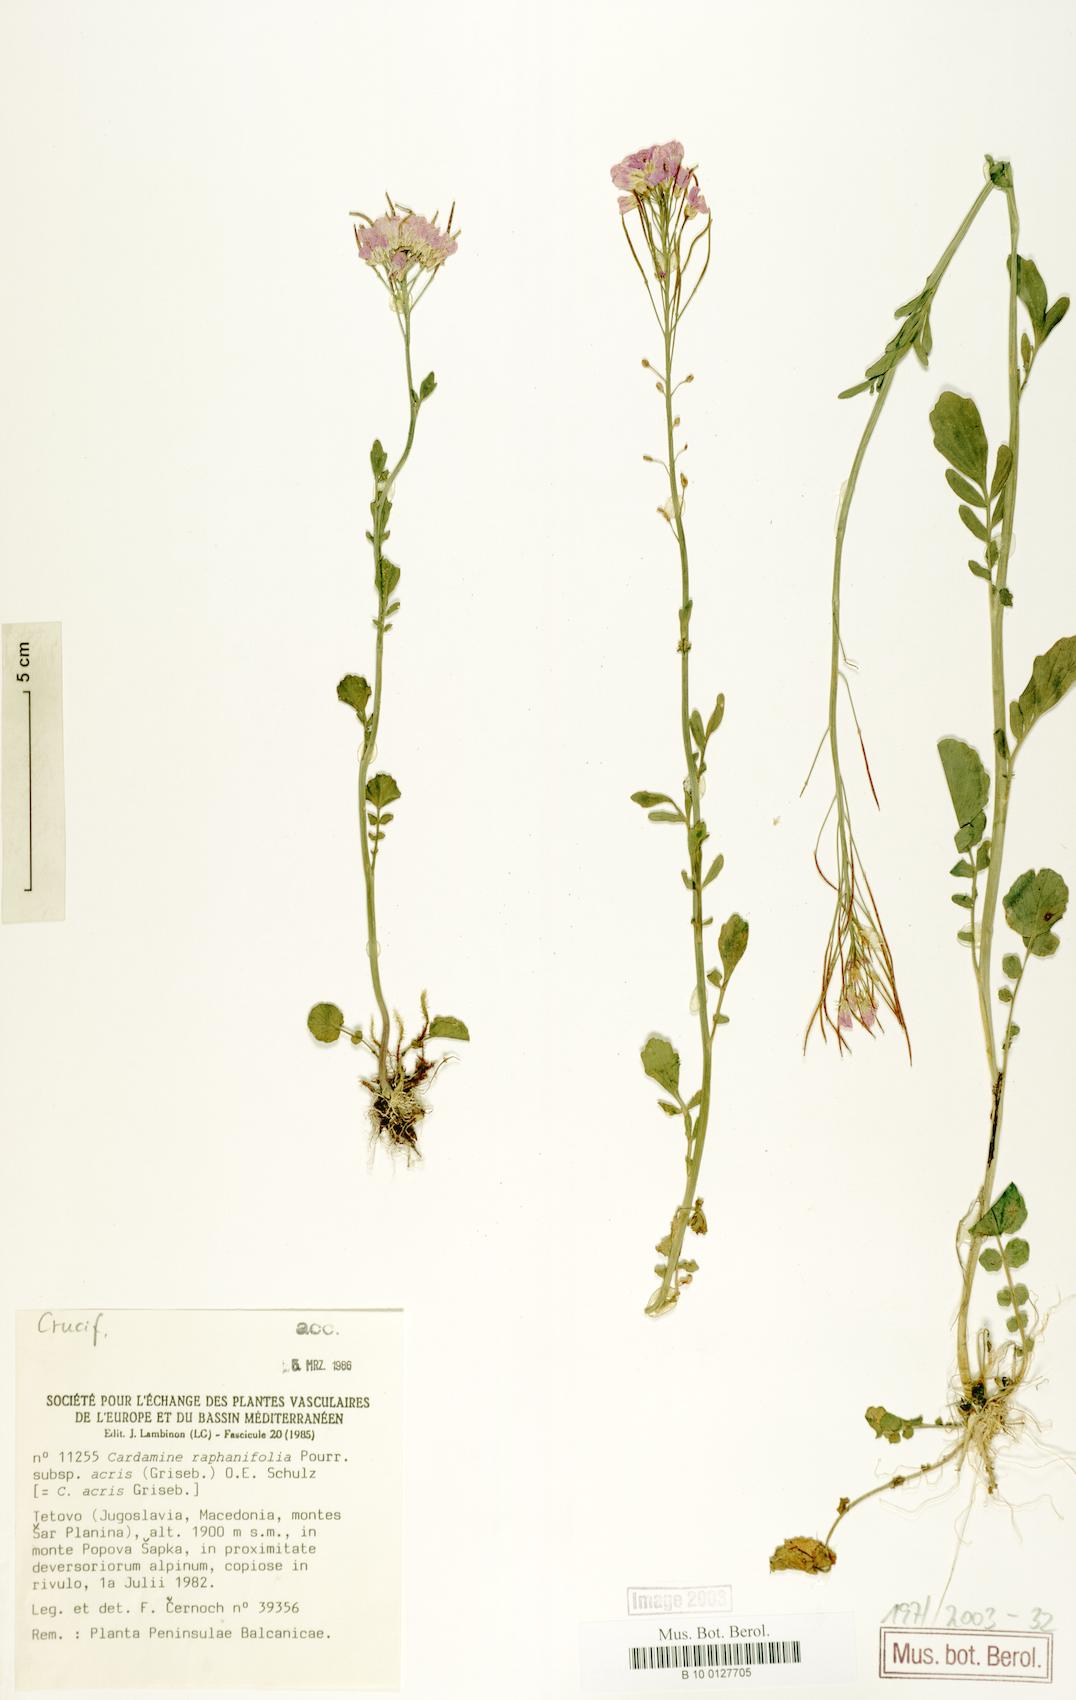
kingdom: Plantae
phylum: Tracheophyta
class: Magnoliopsida
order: Brassicales
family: Brassicaceae
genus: Cardamine
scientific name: Cardamine raphanifolia
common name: Greater cuckooflower
